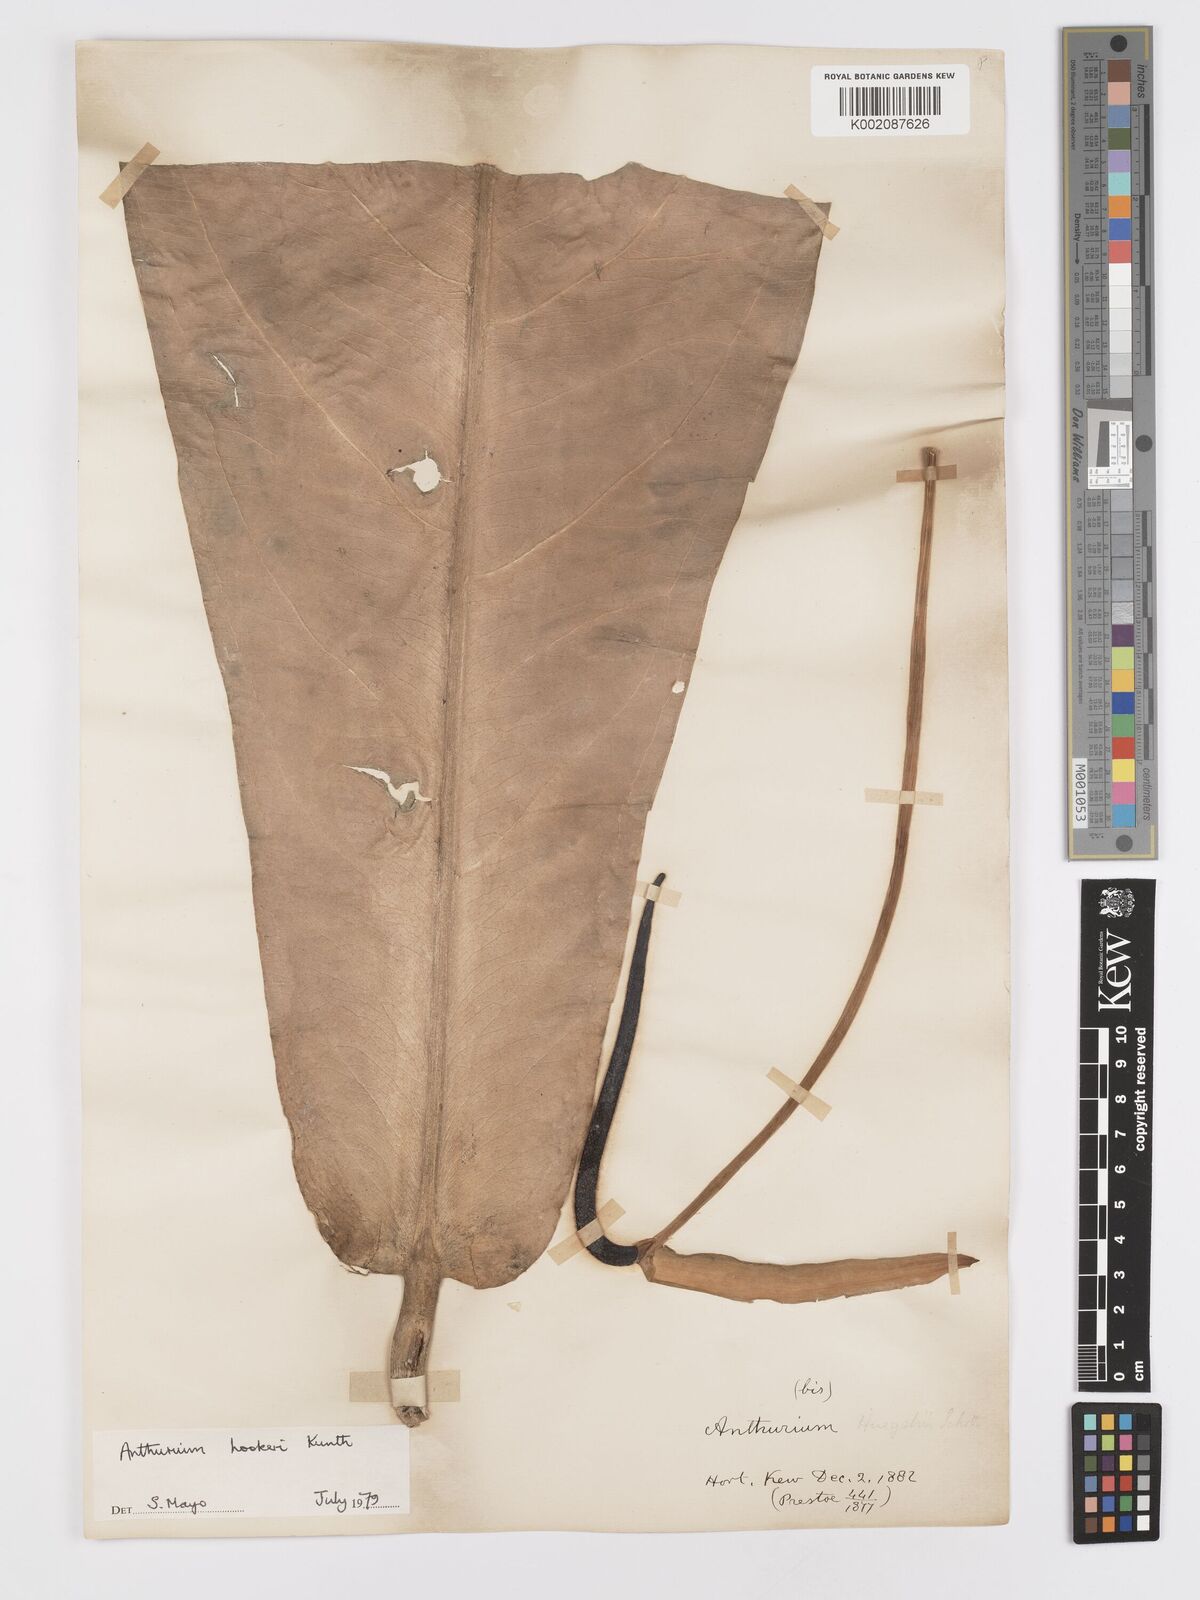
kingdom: Plantae
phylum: Tracheophyta
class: Liliopsida
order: Alismatales
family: Araceae
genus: Anthurium
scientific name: Anthurium hookeri
